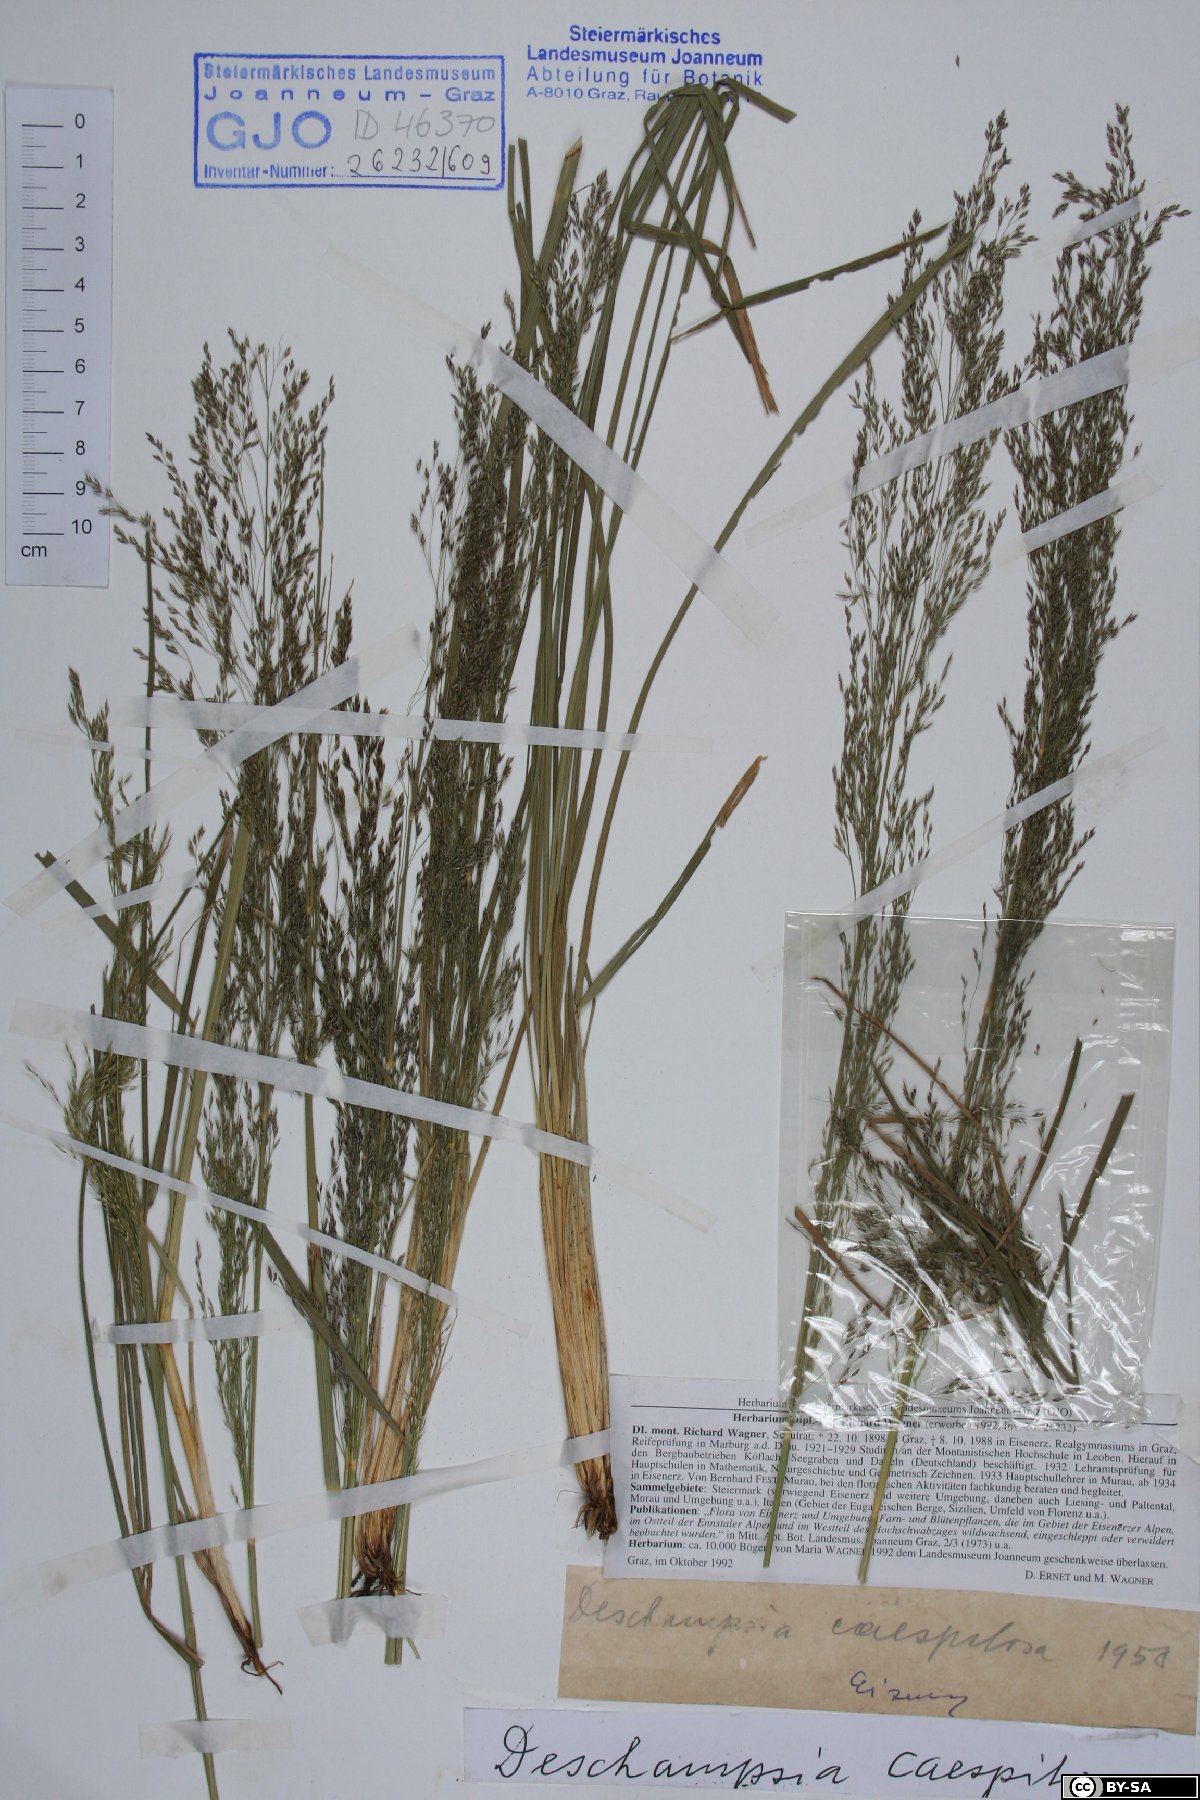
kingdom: Plantae
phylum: Tracheophyta
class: Liliopsida
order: Poales
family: Poaceae
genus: Deschampsia
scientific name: Deschampsia cespitosa
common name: Tufted hair-grass
